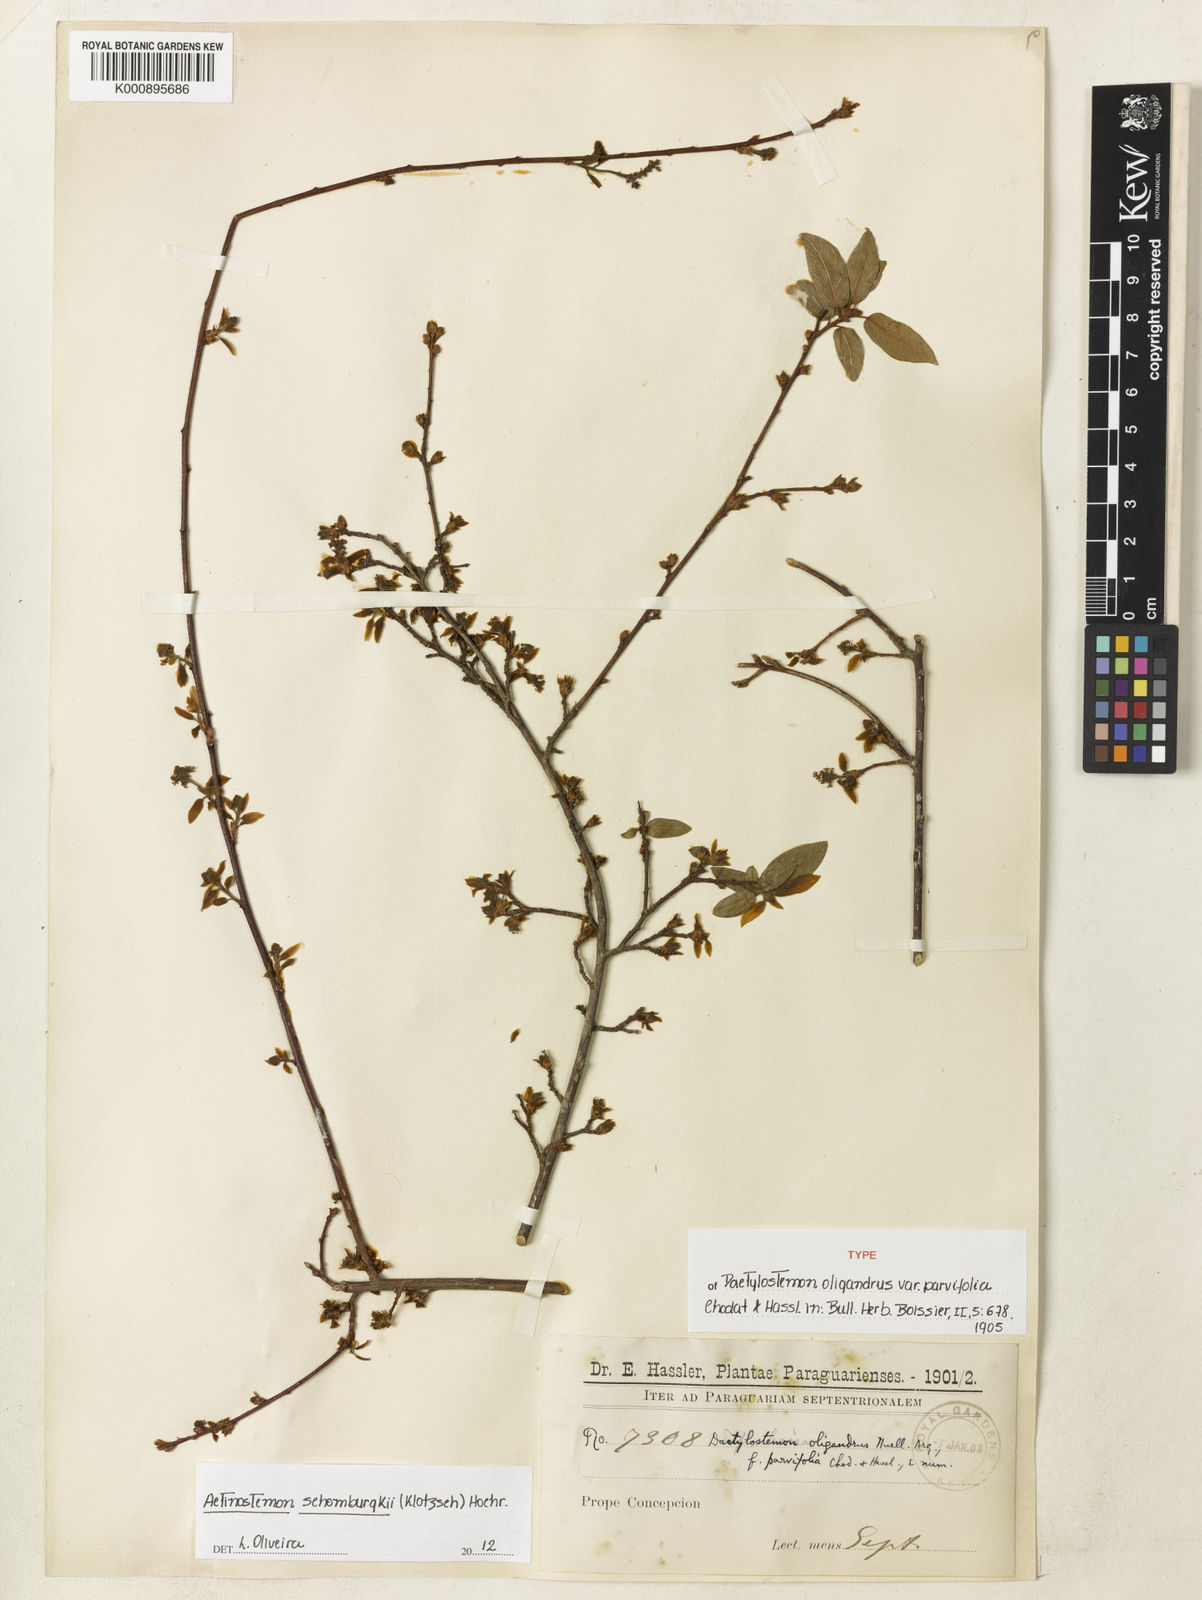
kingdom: Plantae
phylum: Tracheophyta
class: Magnoliopsida
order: Malpighiales
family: Euphorbiaceae
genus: Actinostemon
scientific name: Actinostemon schomburgkii
